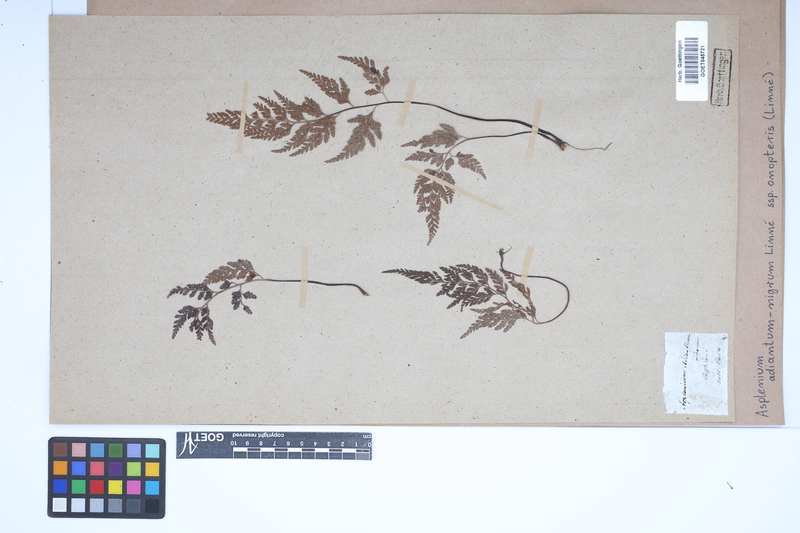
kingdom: Plantae
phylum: Tracheophyta
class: Polypodiopsida
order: Polypodiales
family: Aspleniaceae
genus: Asplenium
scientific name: Asplenium onopteris
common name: Irish spleenwort
